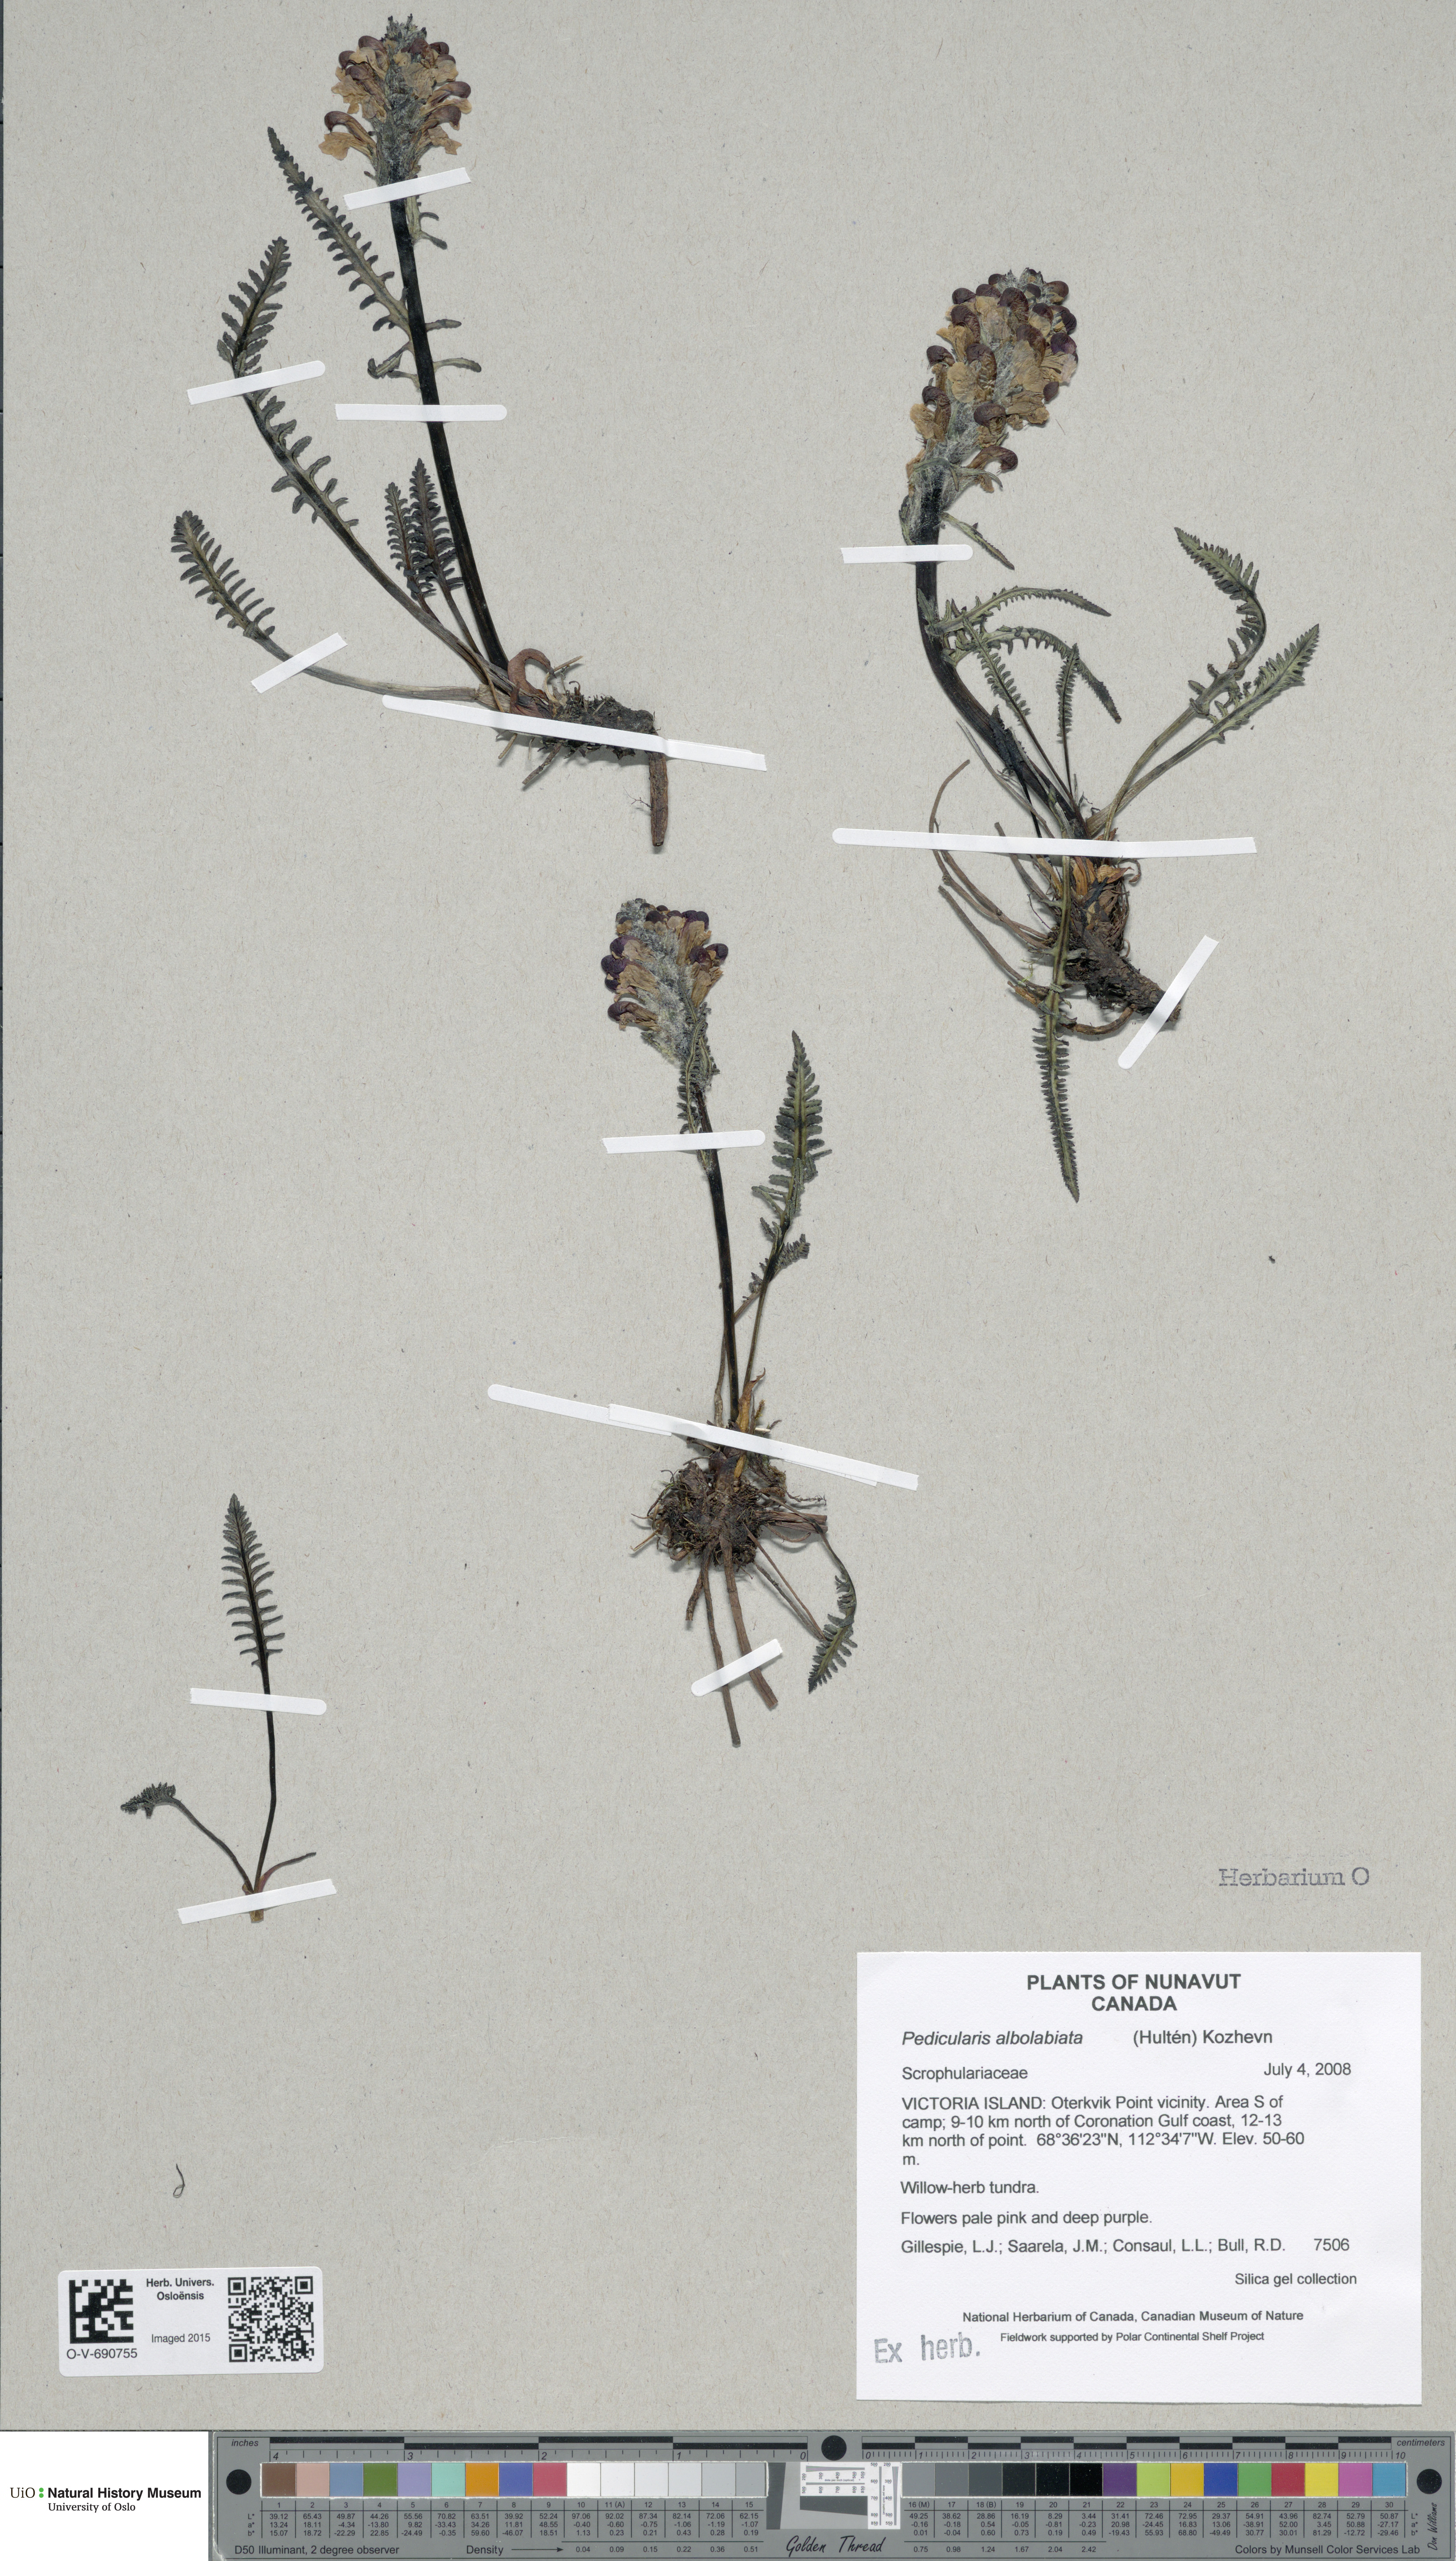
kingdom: Plantae
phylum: Tracheophyta
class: Magnoliopsida
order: Lamiales
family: Orobanchaceae
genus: Pedicularis
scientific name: Pedicularis novaiae-zemliae
